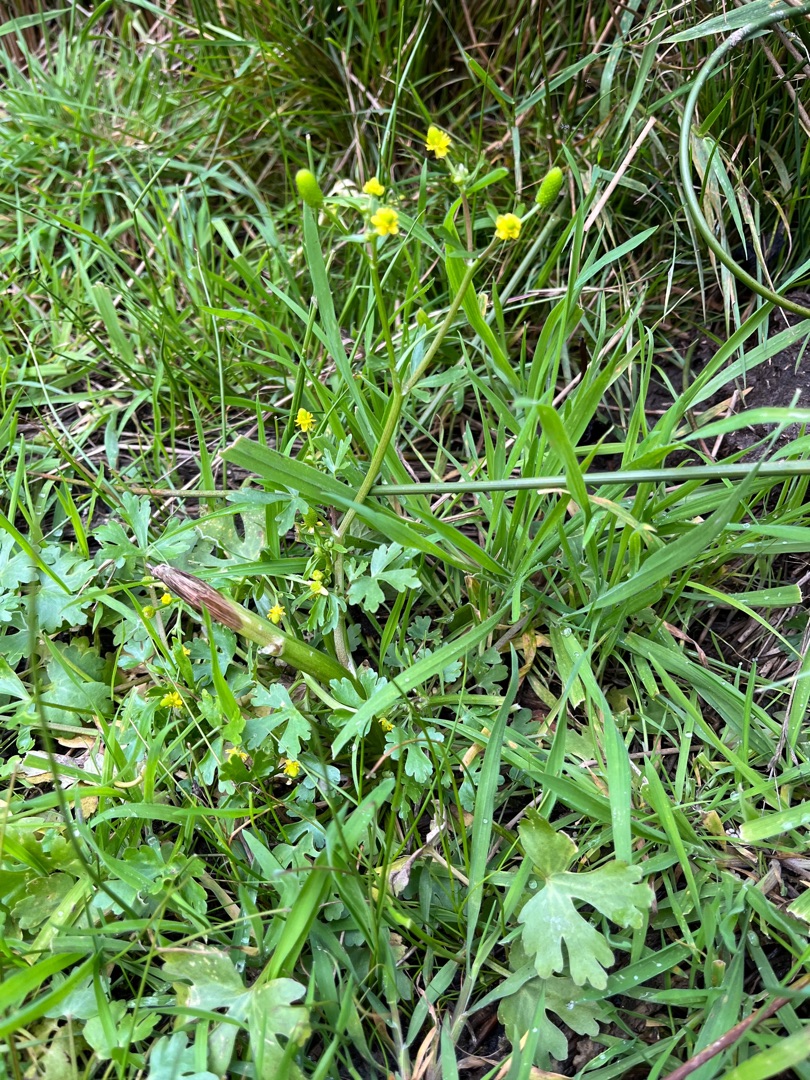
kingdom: Plantae
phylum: Tracheophyta
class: Magnoliopsida
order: Ranunculales
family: Ranunculaceae
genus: Ranunculus
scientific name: Ranunculus sceleratus
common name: Tigger-ranunkel
